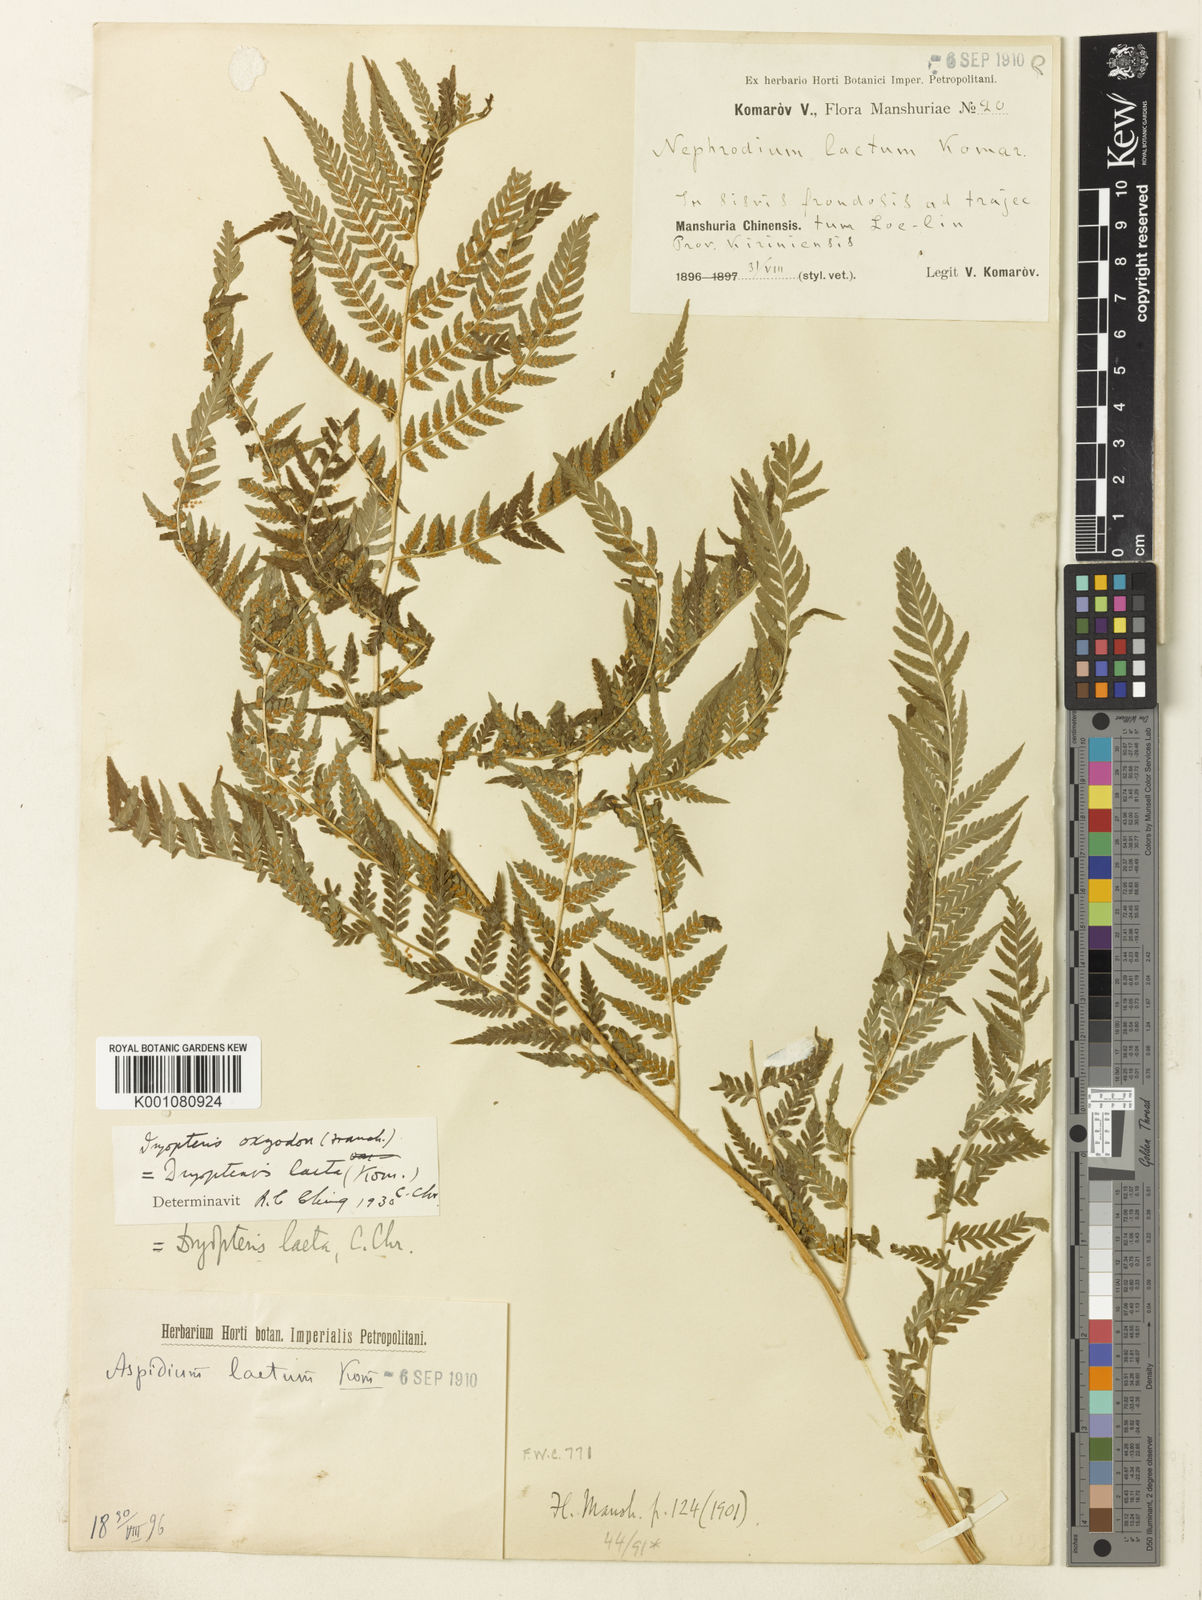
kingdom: Plantae
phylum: Tracheophyta
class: Polypodiopsida
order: Polypodiales
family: Dryopteridaceae
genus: Dryopteris
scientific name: Dryopteris laeta
